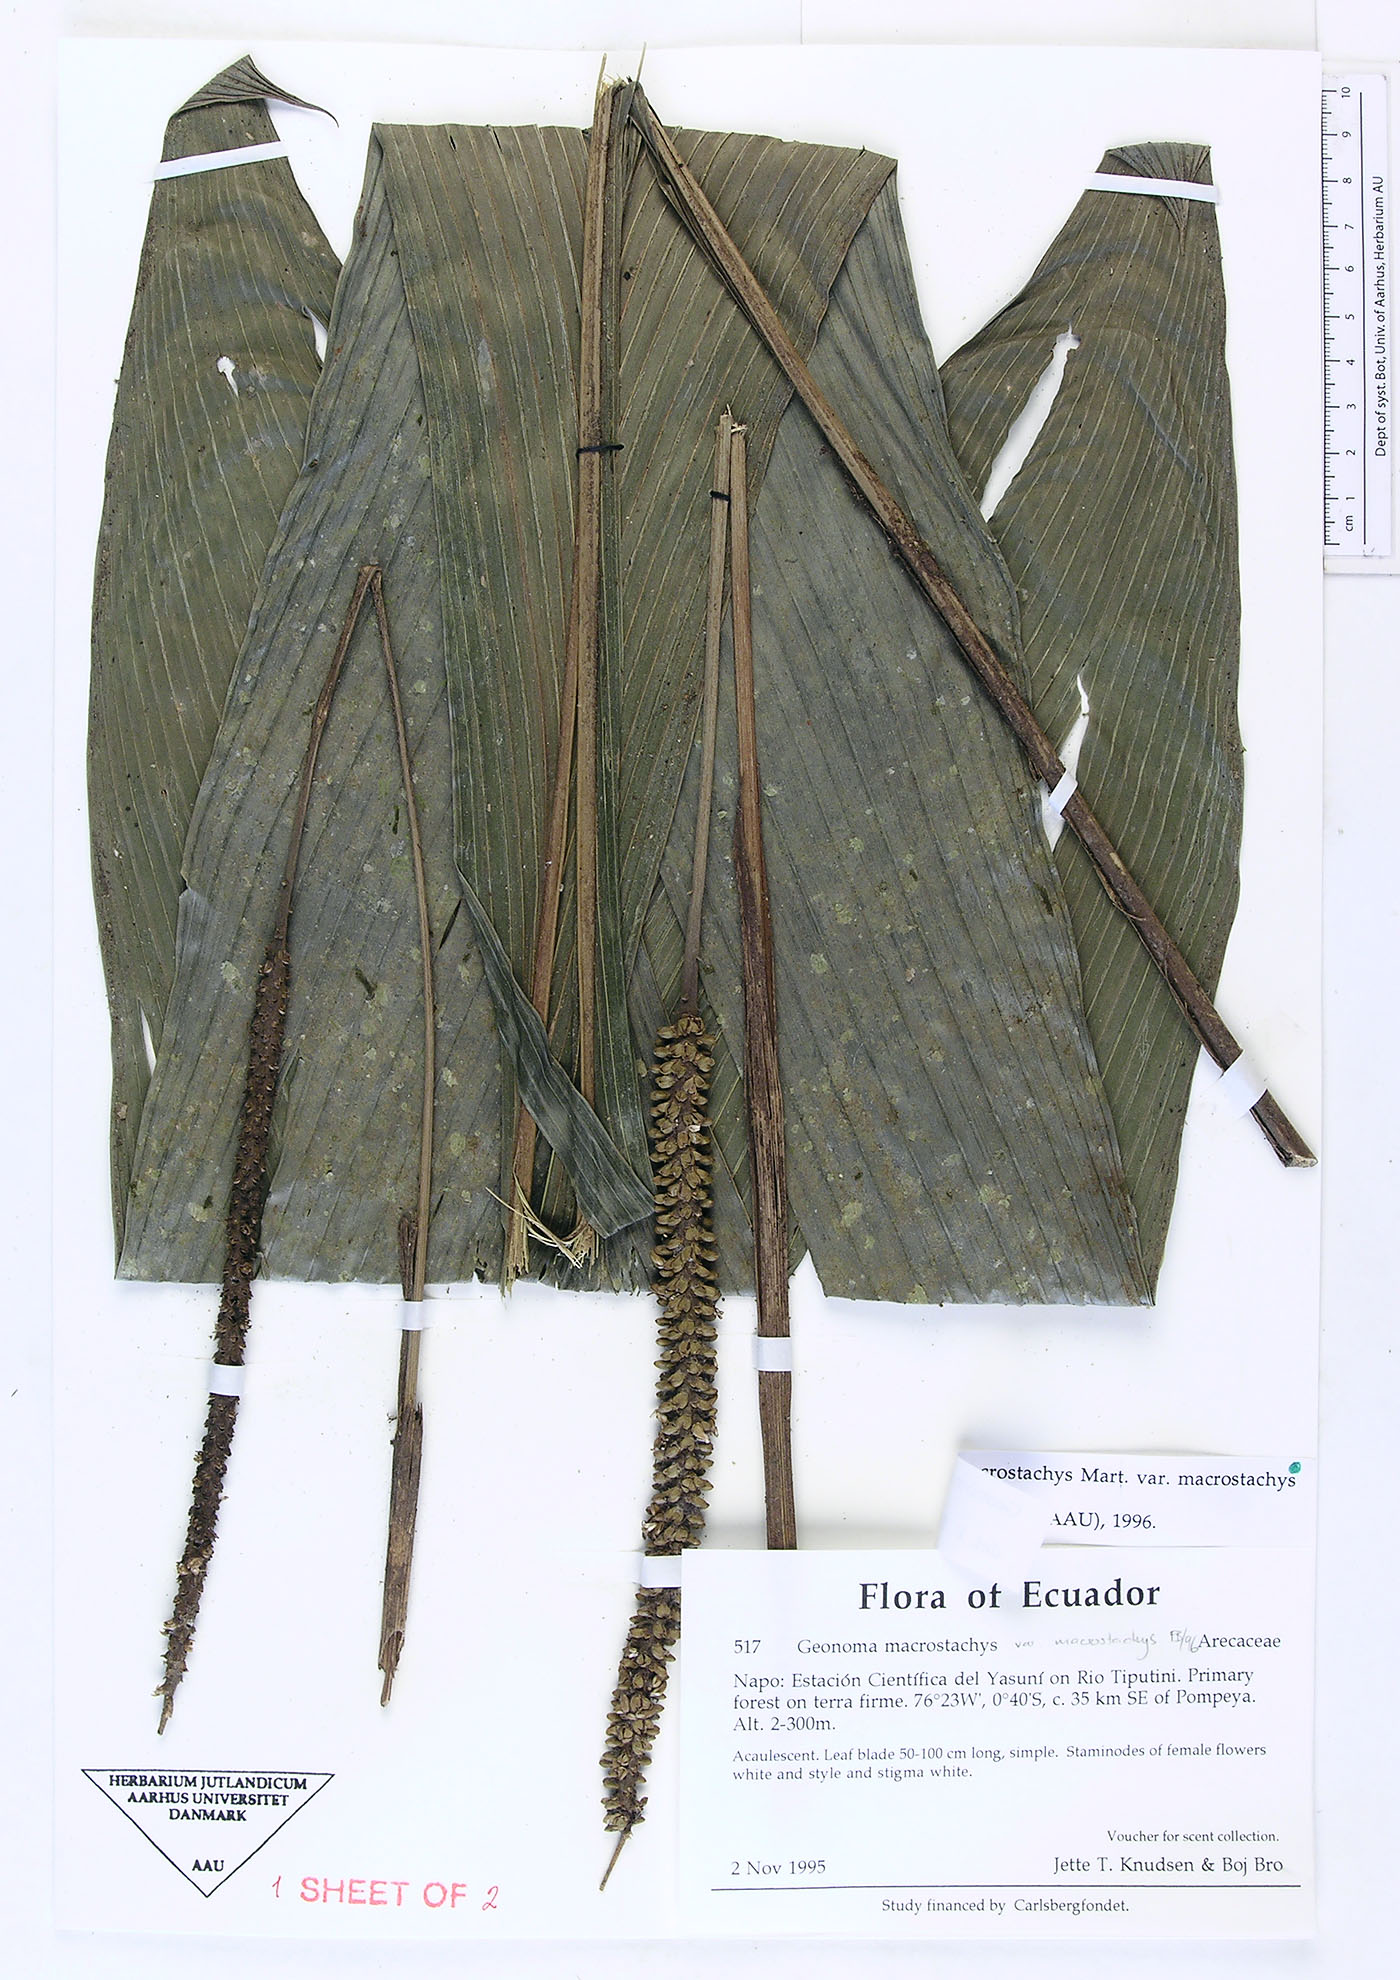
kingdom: Plantae
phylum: Tracheophyta
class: Liliopsida
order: Arecales
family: Arecaceae
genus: Geonoma
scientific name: Geonoma macrostachys
